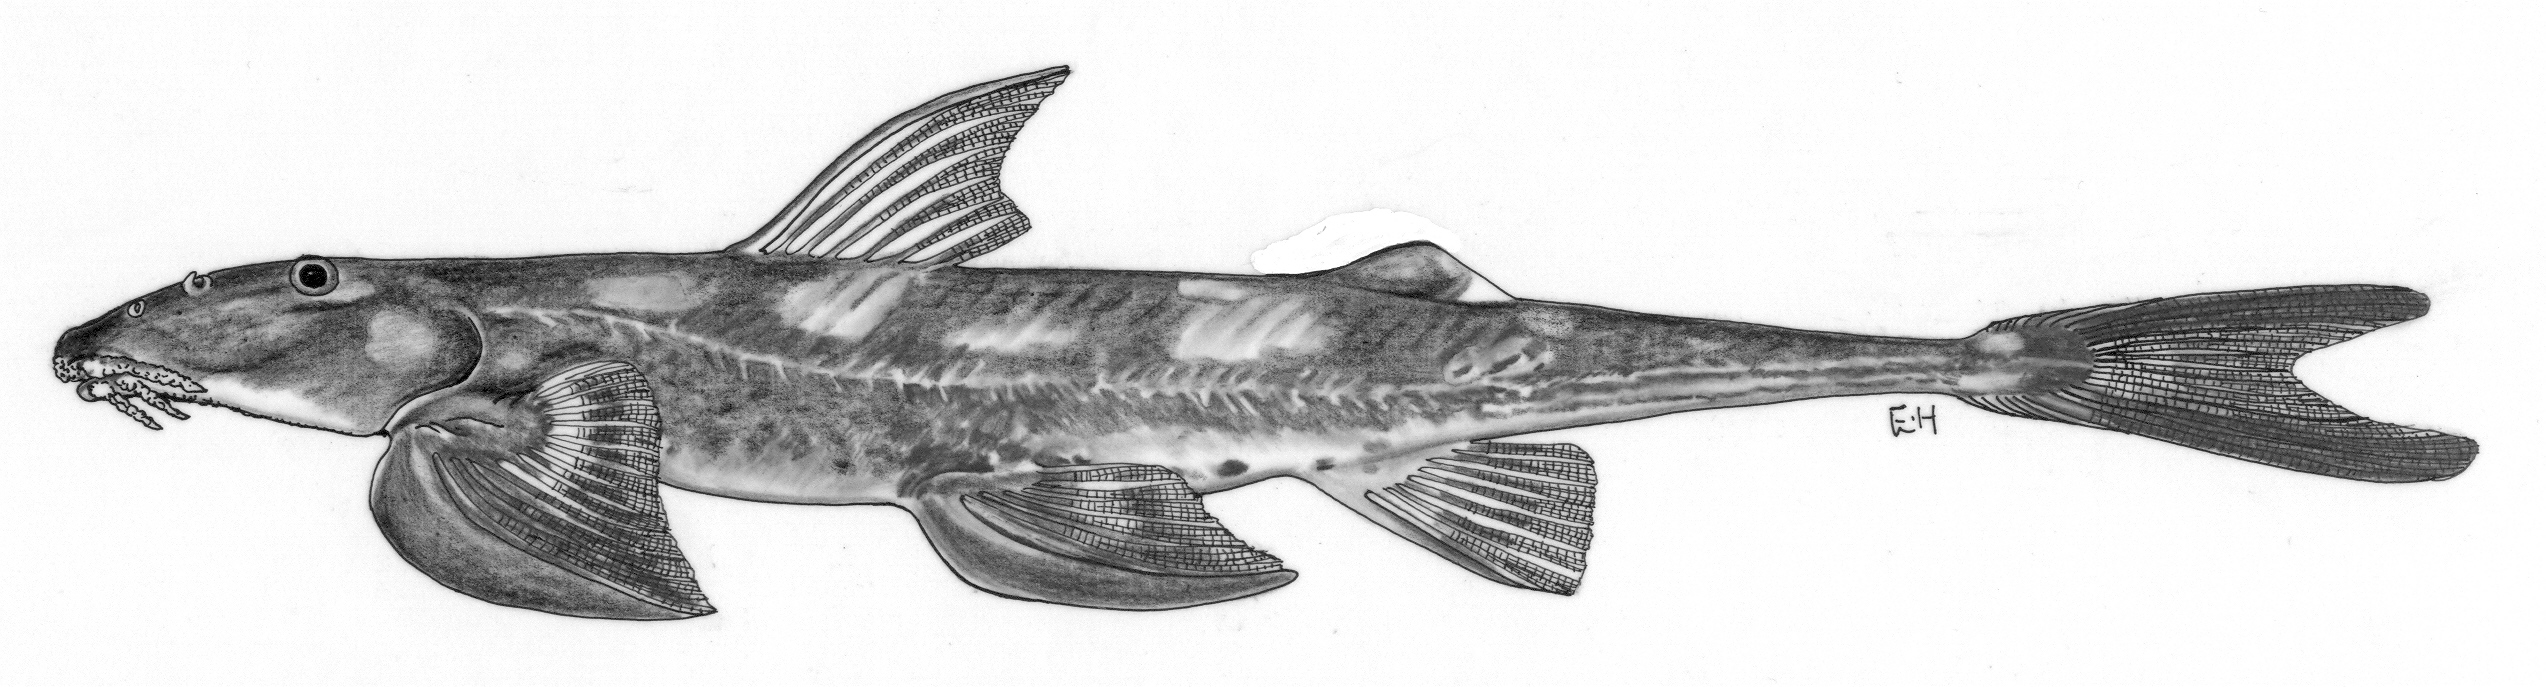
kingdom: Animalia
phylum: Chordata
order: Siluriformes
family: Amphiliidae
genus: Doumea
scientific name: Doumea gracila
